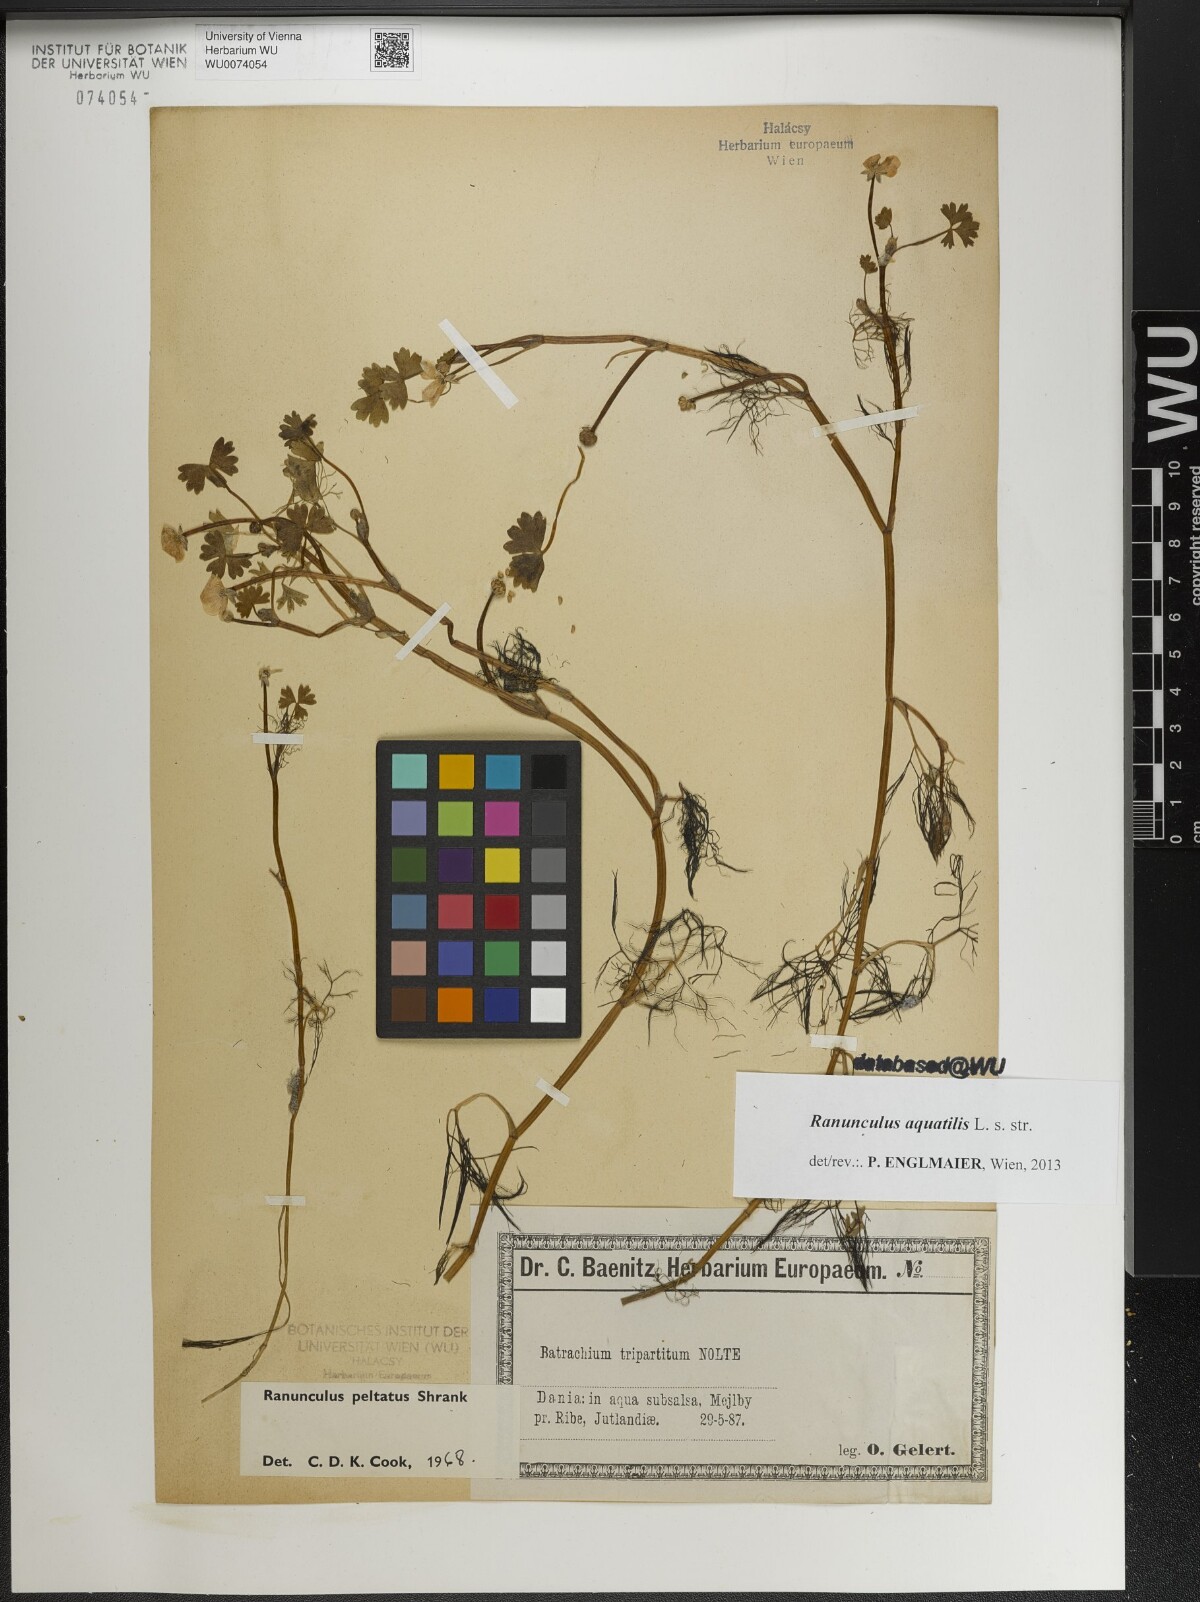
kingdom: Plantae
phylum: Tracheophyta
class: Magnoliopsida
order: Ranunculales
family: Ranunculaceae
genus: Ranunculus
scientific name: Ranunculus aquatilis
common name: Common water-crowfoot
